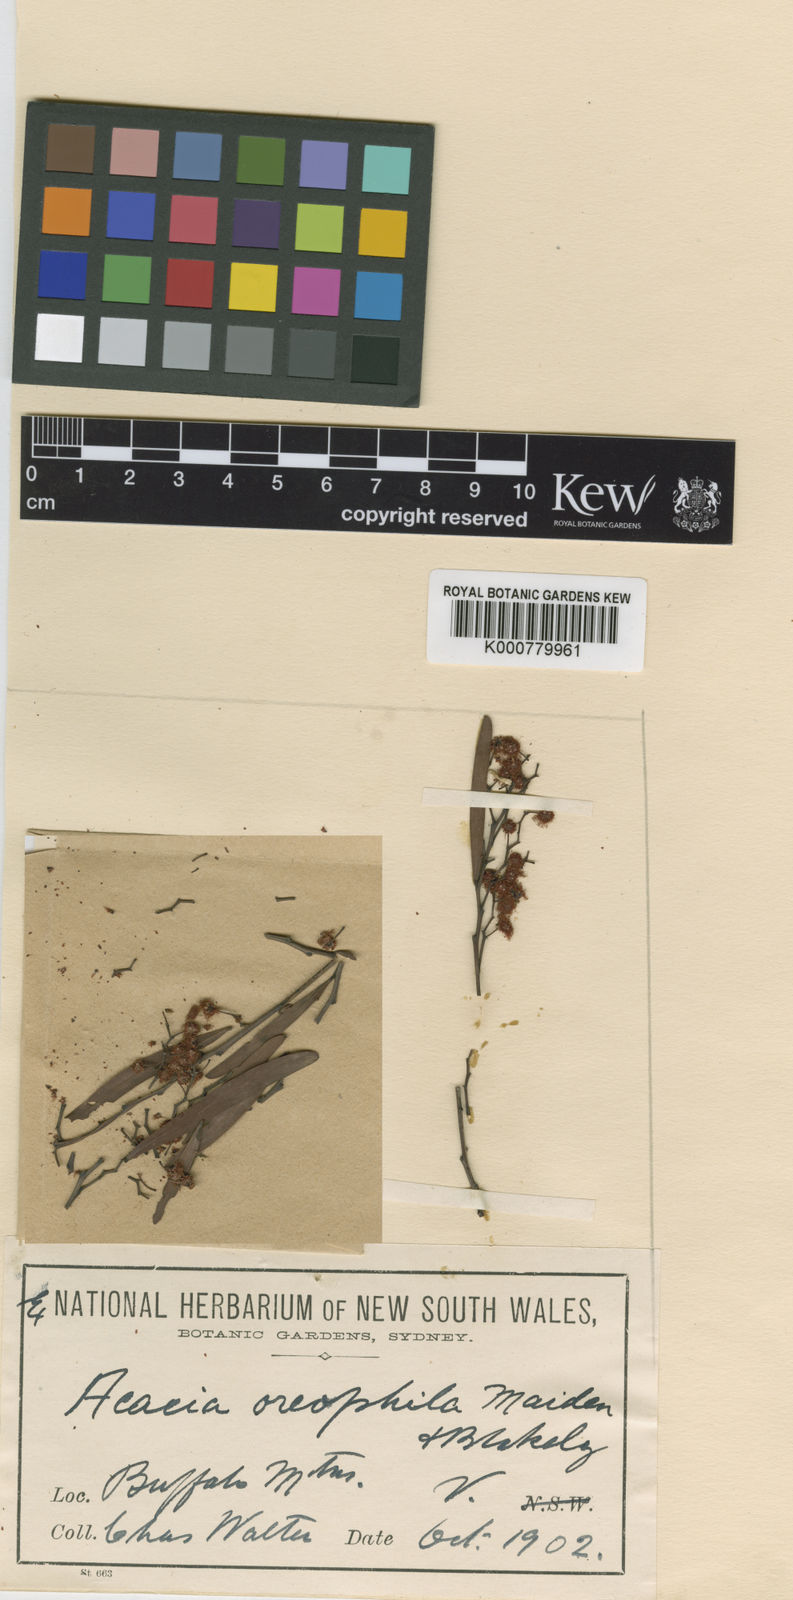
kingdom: Plantae
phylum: Tracheophyta
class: Magnoliopsida
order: Fabales
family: Fabaceae
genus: Acacia
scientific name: Acacia kettlewelliae
